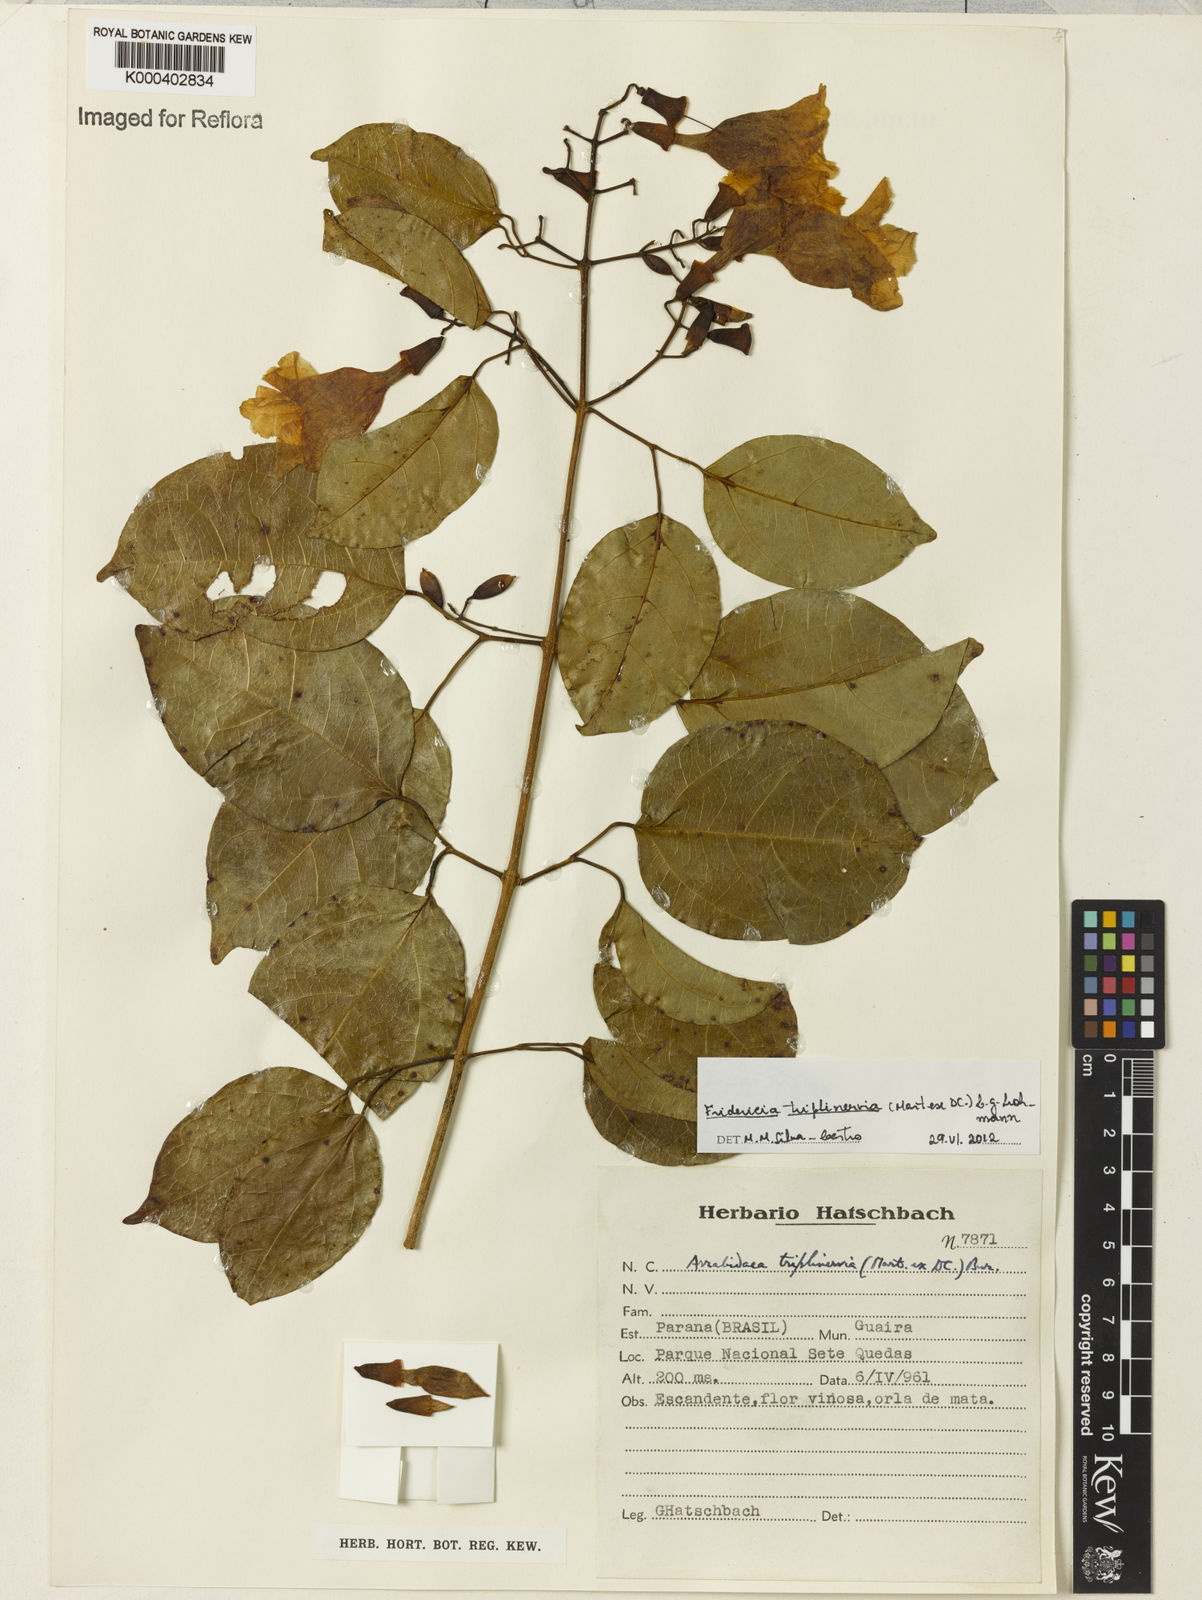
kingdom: Plantae
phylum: Tracheophyta
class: Magnoliopsida
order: Lamiales
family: Bignoniaceae
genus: Fridericia
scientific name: Fridericia triplinervia
